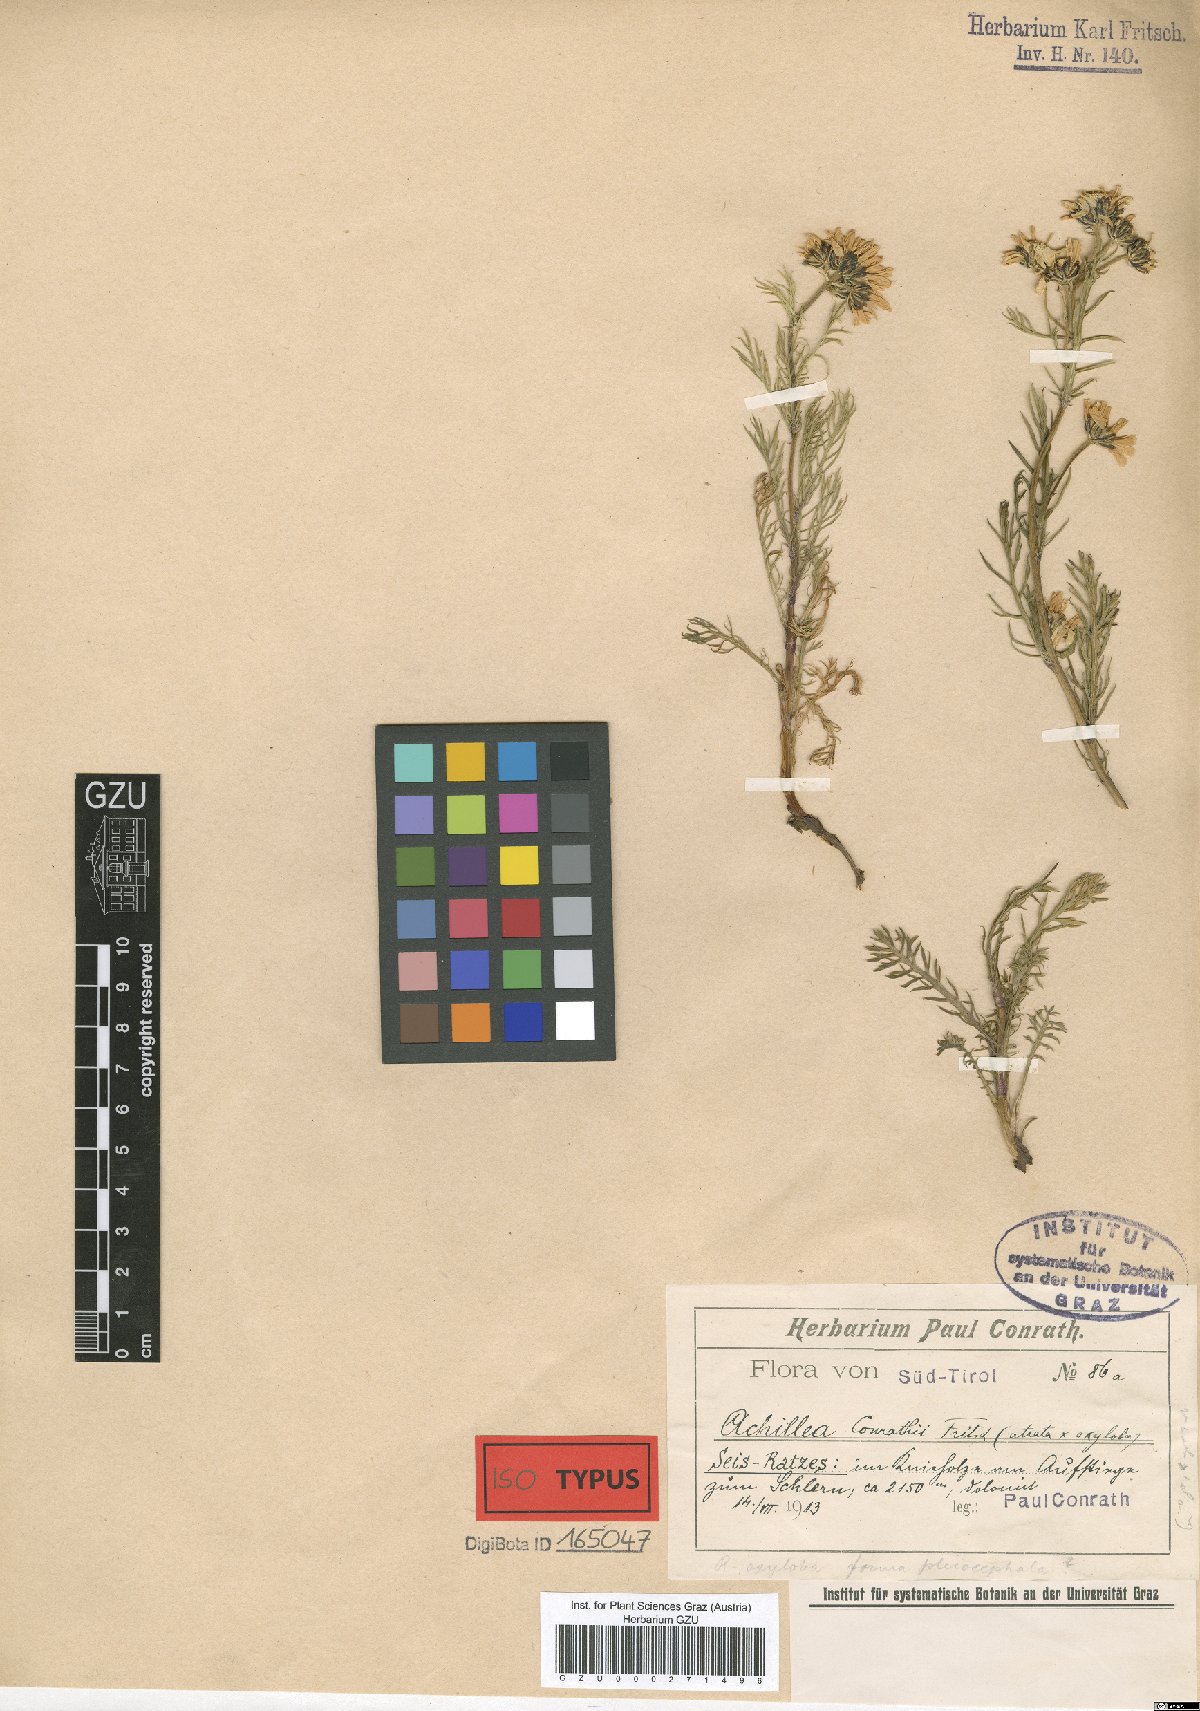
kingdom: Plantae
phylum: Tracheophyta
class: Magnoliopsida
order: Asterales
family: Asteraceae
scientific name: Asteraceae
